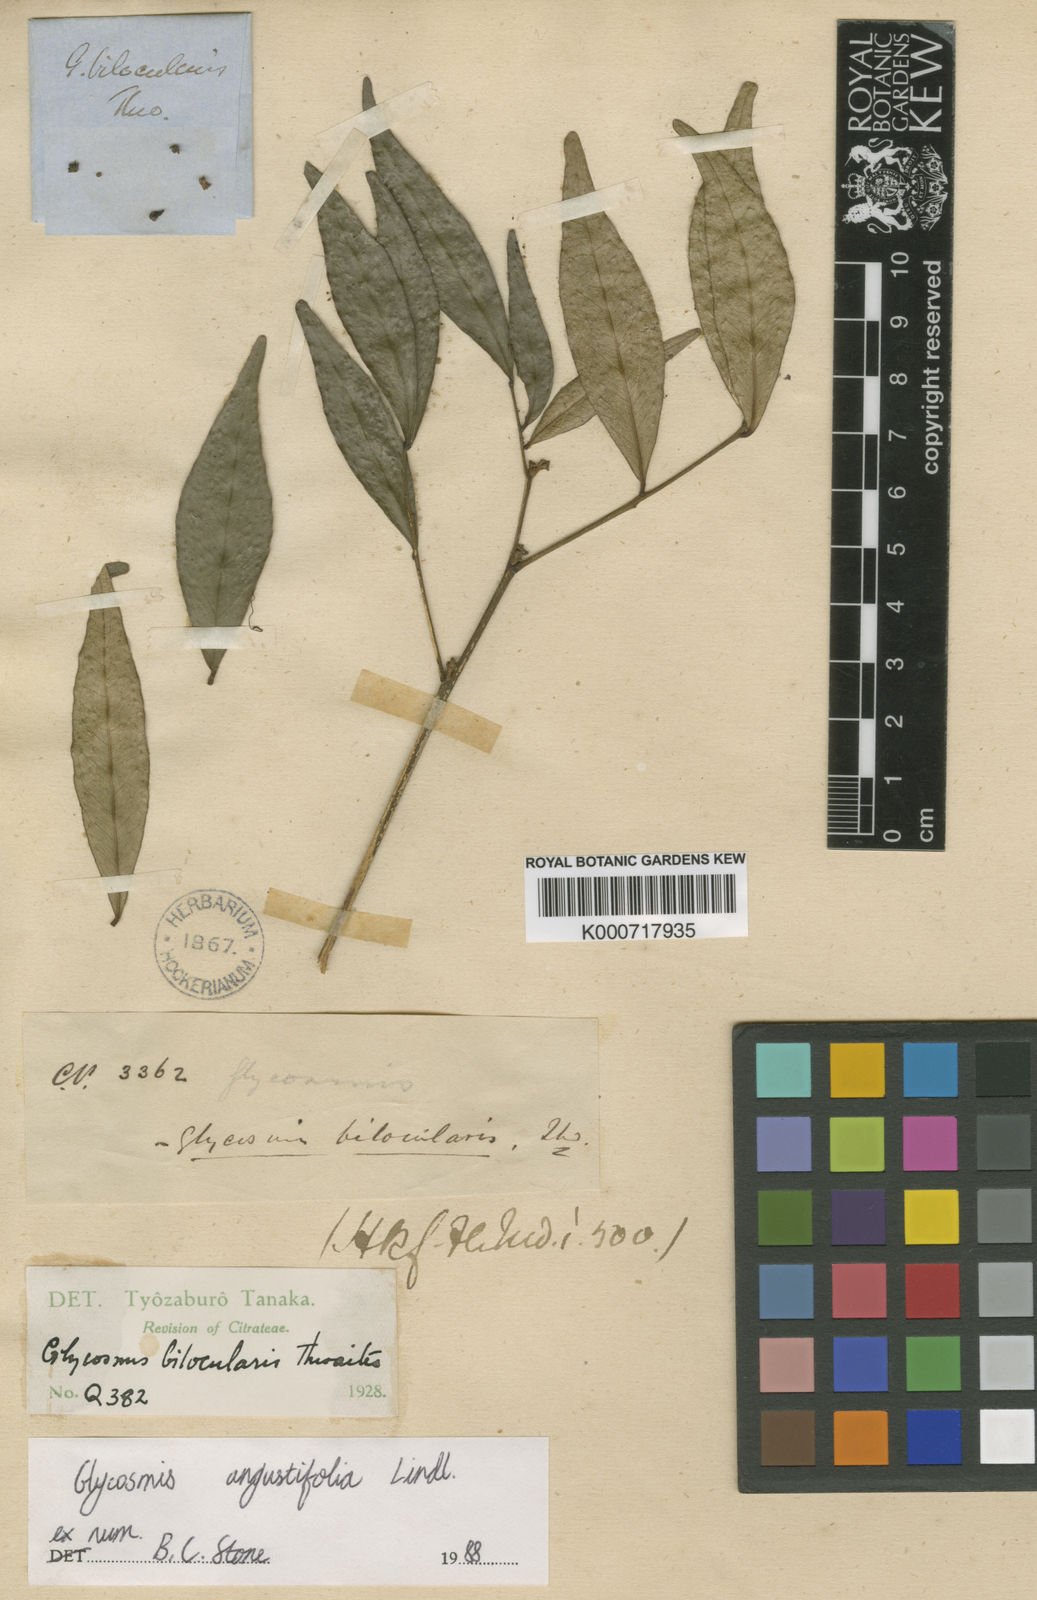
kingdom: Plantae
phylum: Tracheophyta
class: Magnoliopsida
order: Sapindales
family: Rutaceae
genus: Glycosmis
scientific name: Glycosmis
